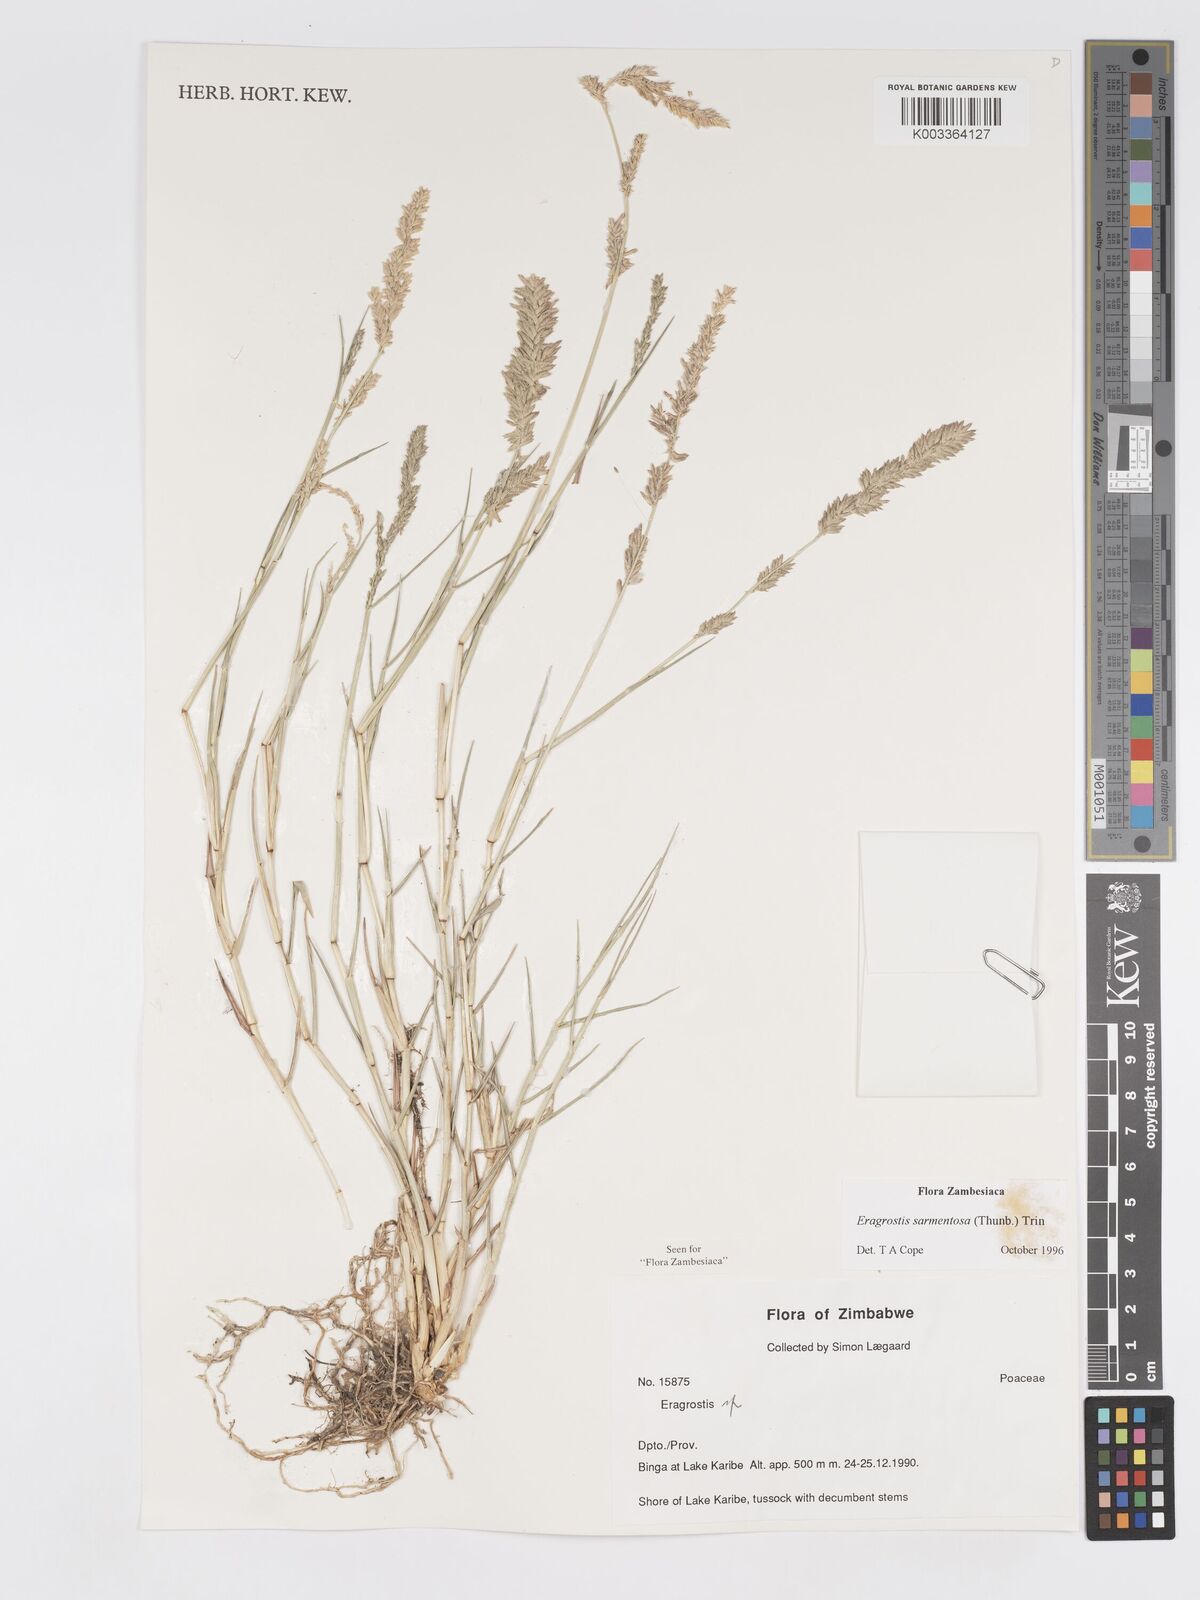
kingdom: Plantae
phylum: Tracheophyta
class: Liliopsida
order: Poales
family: Poaceae
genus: Eragrostis
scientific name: Eragrostis sarmentosa
